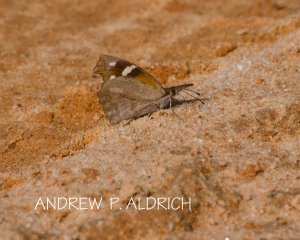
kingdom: Animalia
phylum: Arthropoda
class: Insecta
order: Lepidoptera
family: Nymphalidae
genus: Libytheana
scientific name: Libytheana carinenta
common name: American Snout
